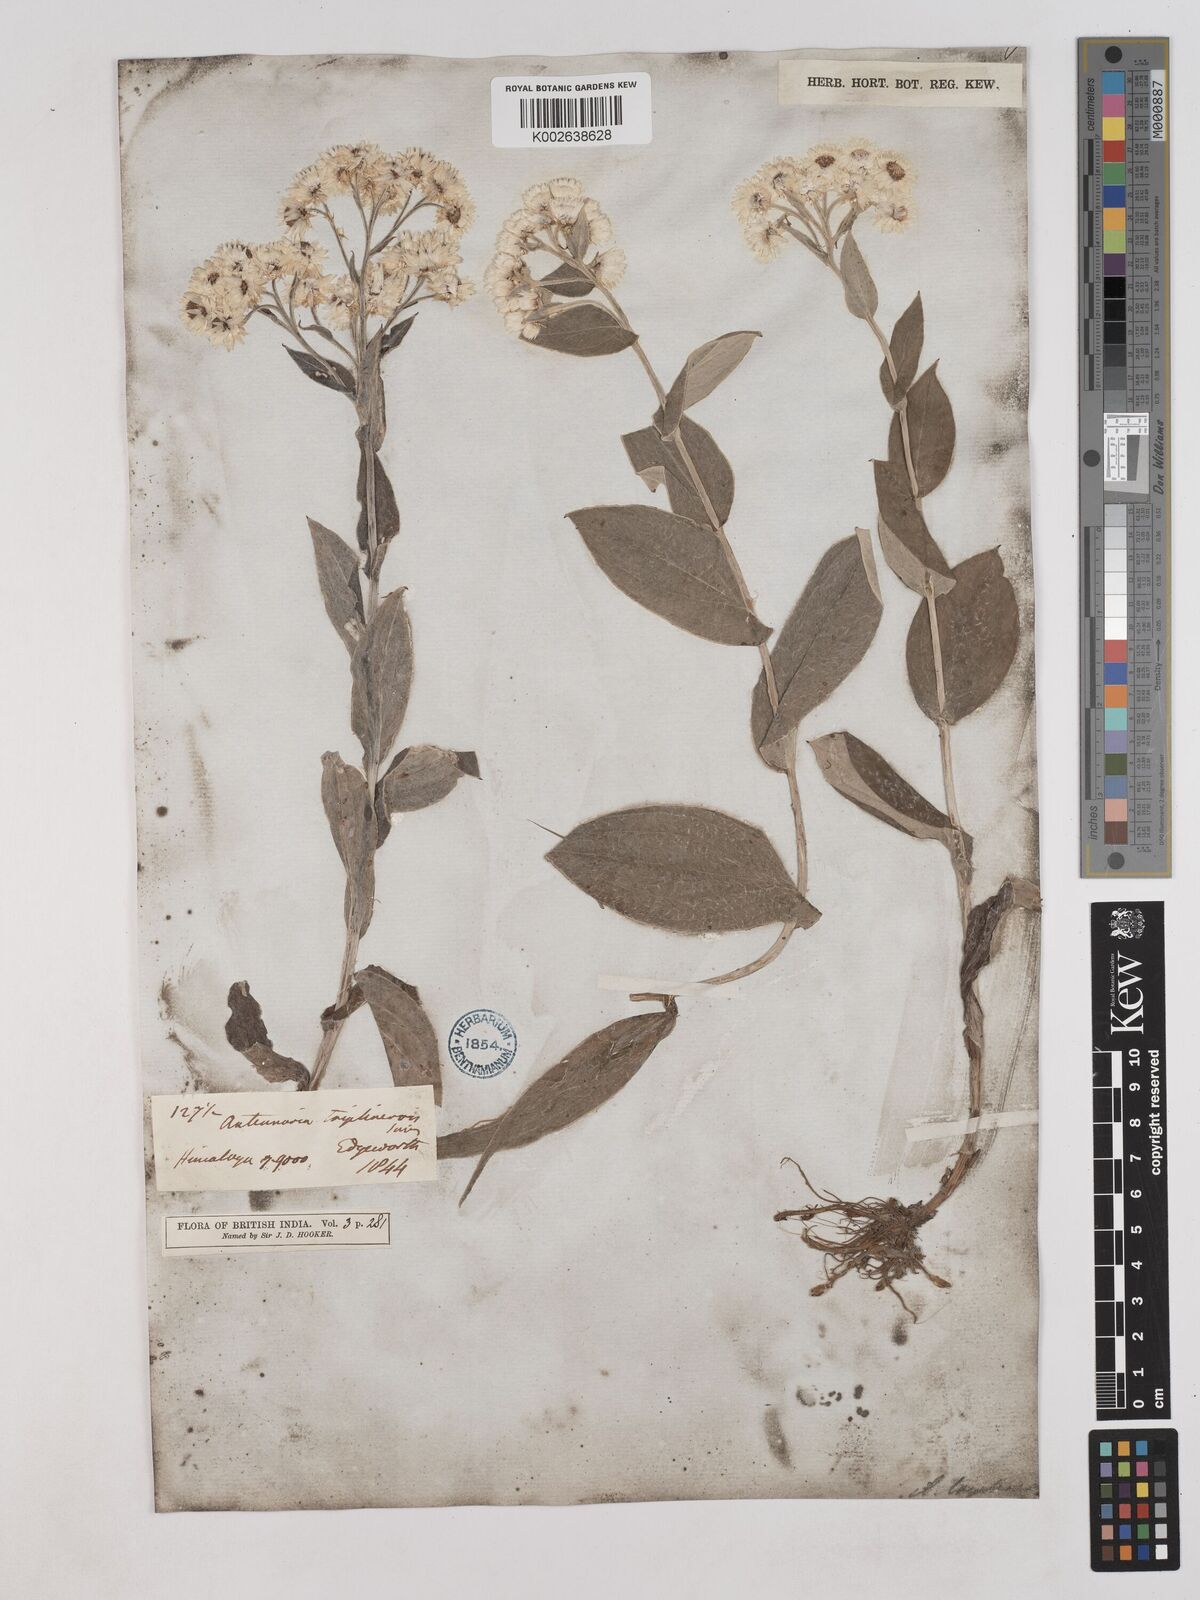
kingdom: Plantae
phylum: Tracheophyta
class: Magnoliopsida
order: Asterales
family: Asteraceae
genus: Anaphalis
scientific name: Anaphalis triplinervis
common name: Pearly everlasting
